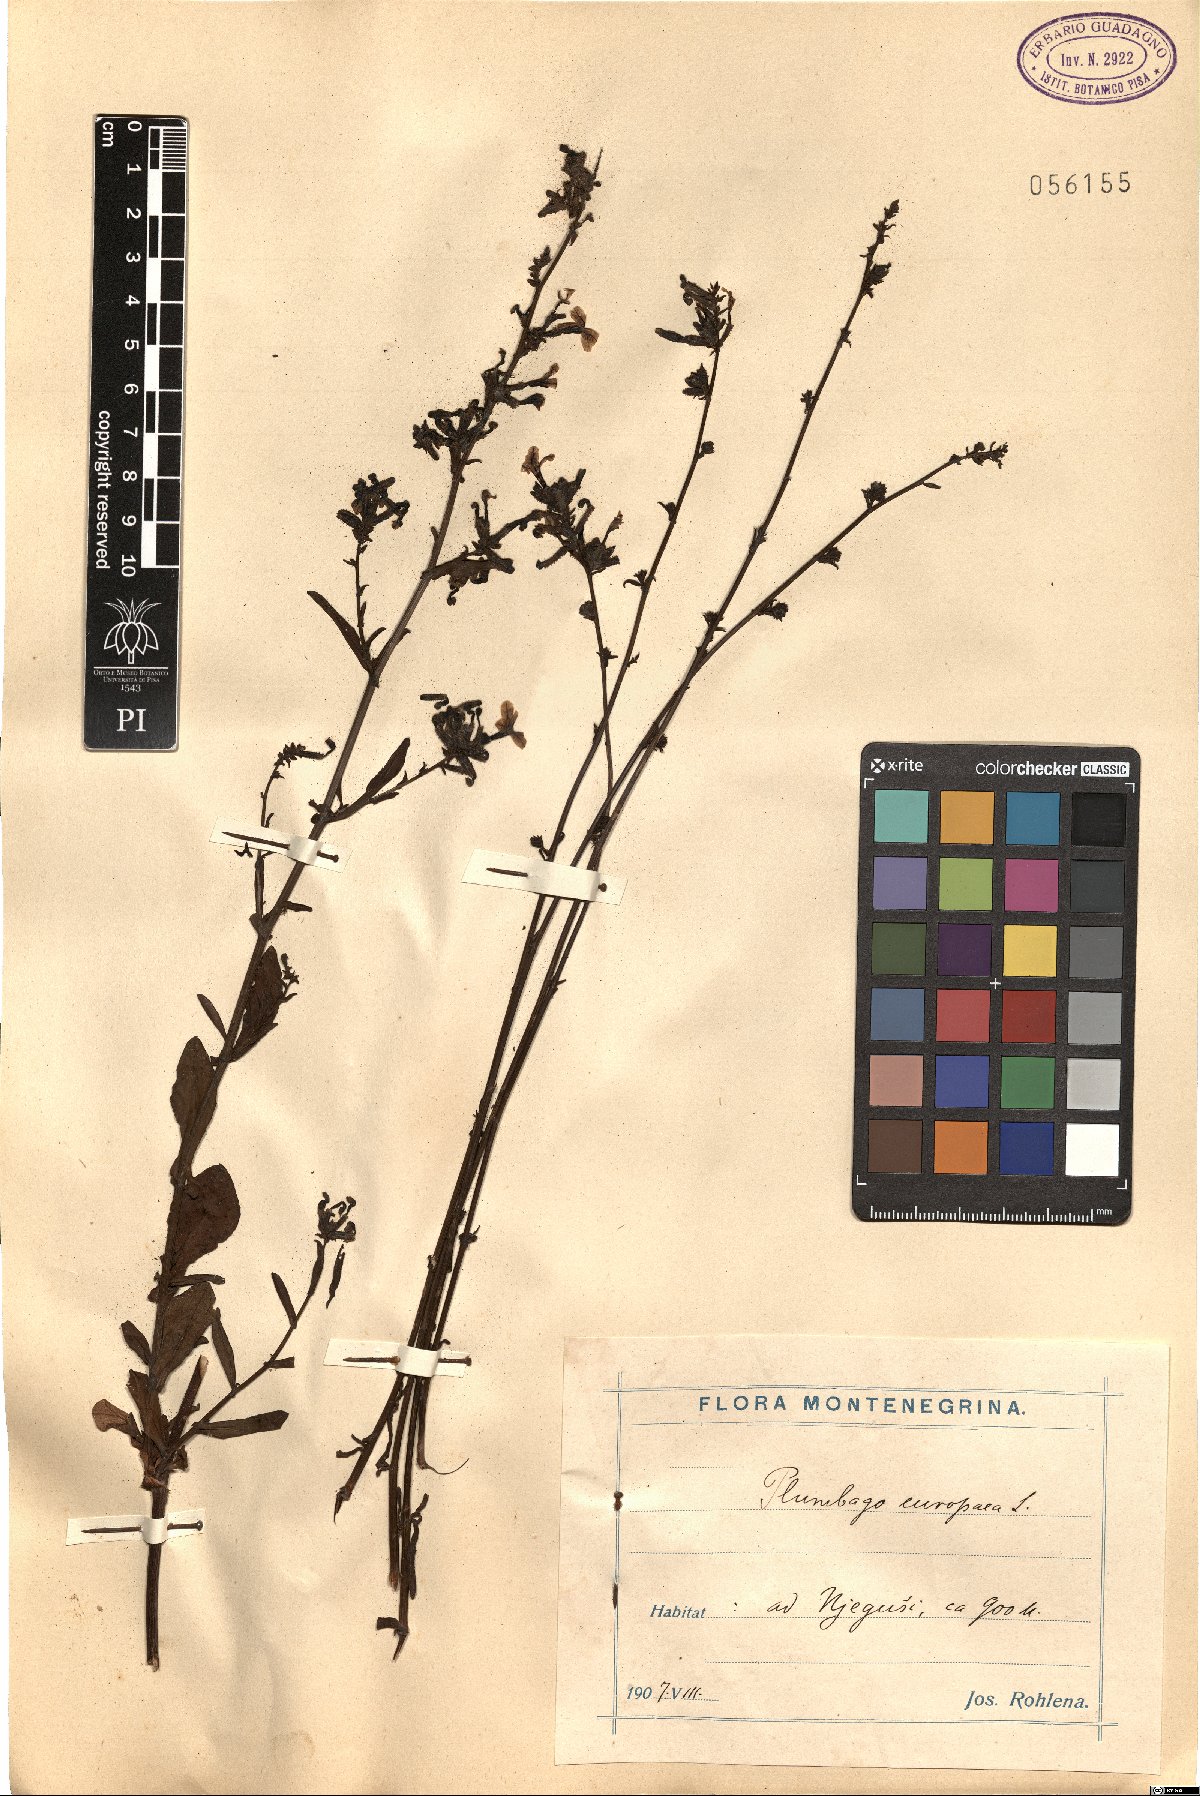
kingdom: Plantae
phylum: Tracheophyta
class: Magnoliopsida
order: Caryophyllales
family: Plumbaginaceae
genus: Plumbago
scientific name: Plumbago europaea
